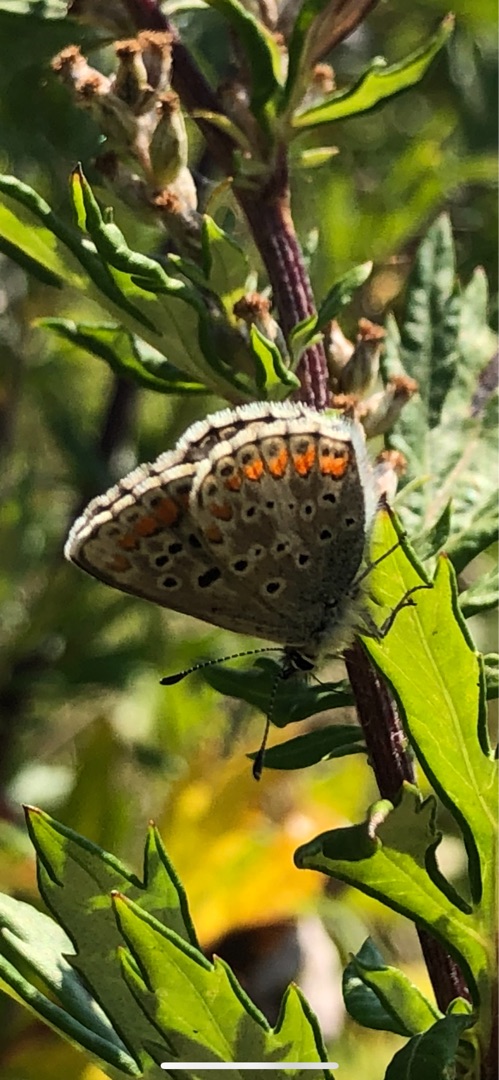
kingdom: Animalia
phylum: Arthropoda
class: Insecta
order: Lepidoptera
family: Lycaenidae
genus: Aricia
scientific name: Aricia agestis
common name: Rødplettet blåfugl
